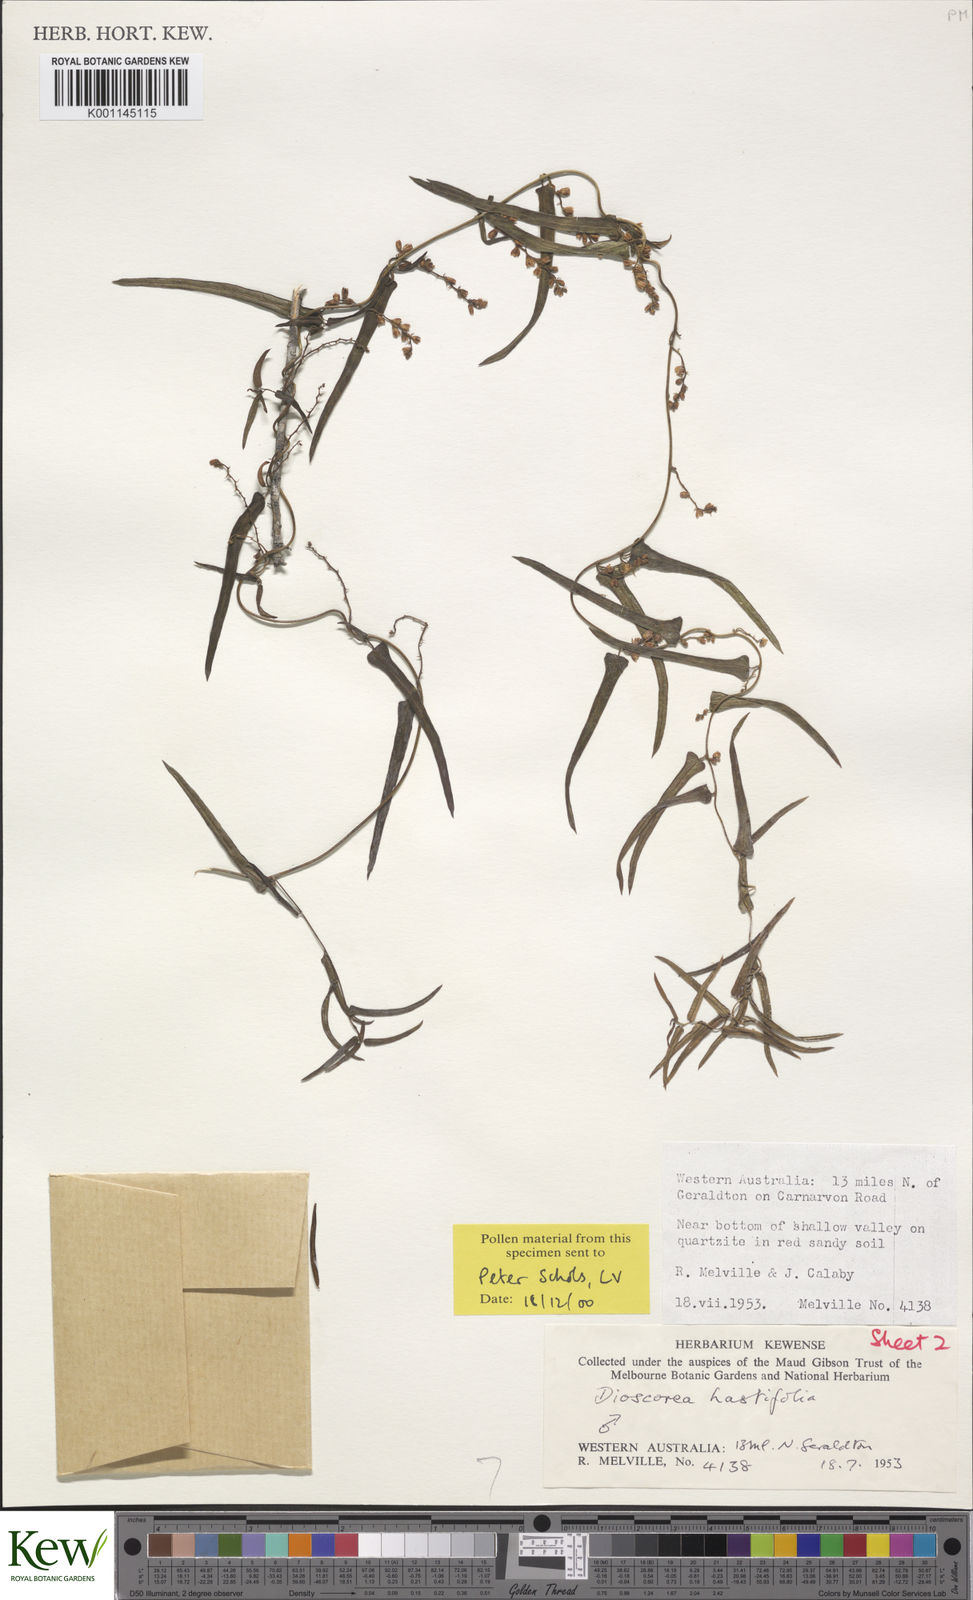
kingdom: Plantae
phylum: Tracheophyta
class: Liliopsida
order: Dioscoreales
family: Dioscoreaceae
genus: Dioscorea
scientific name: Dioscorea hastifolia
